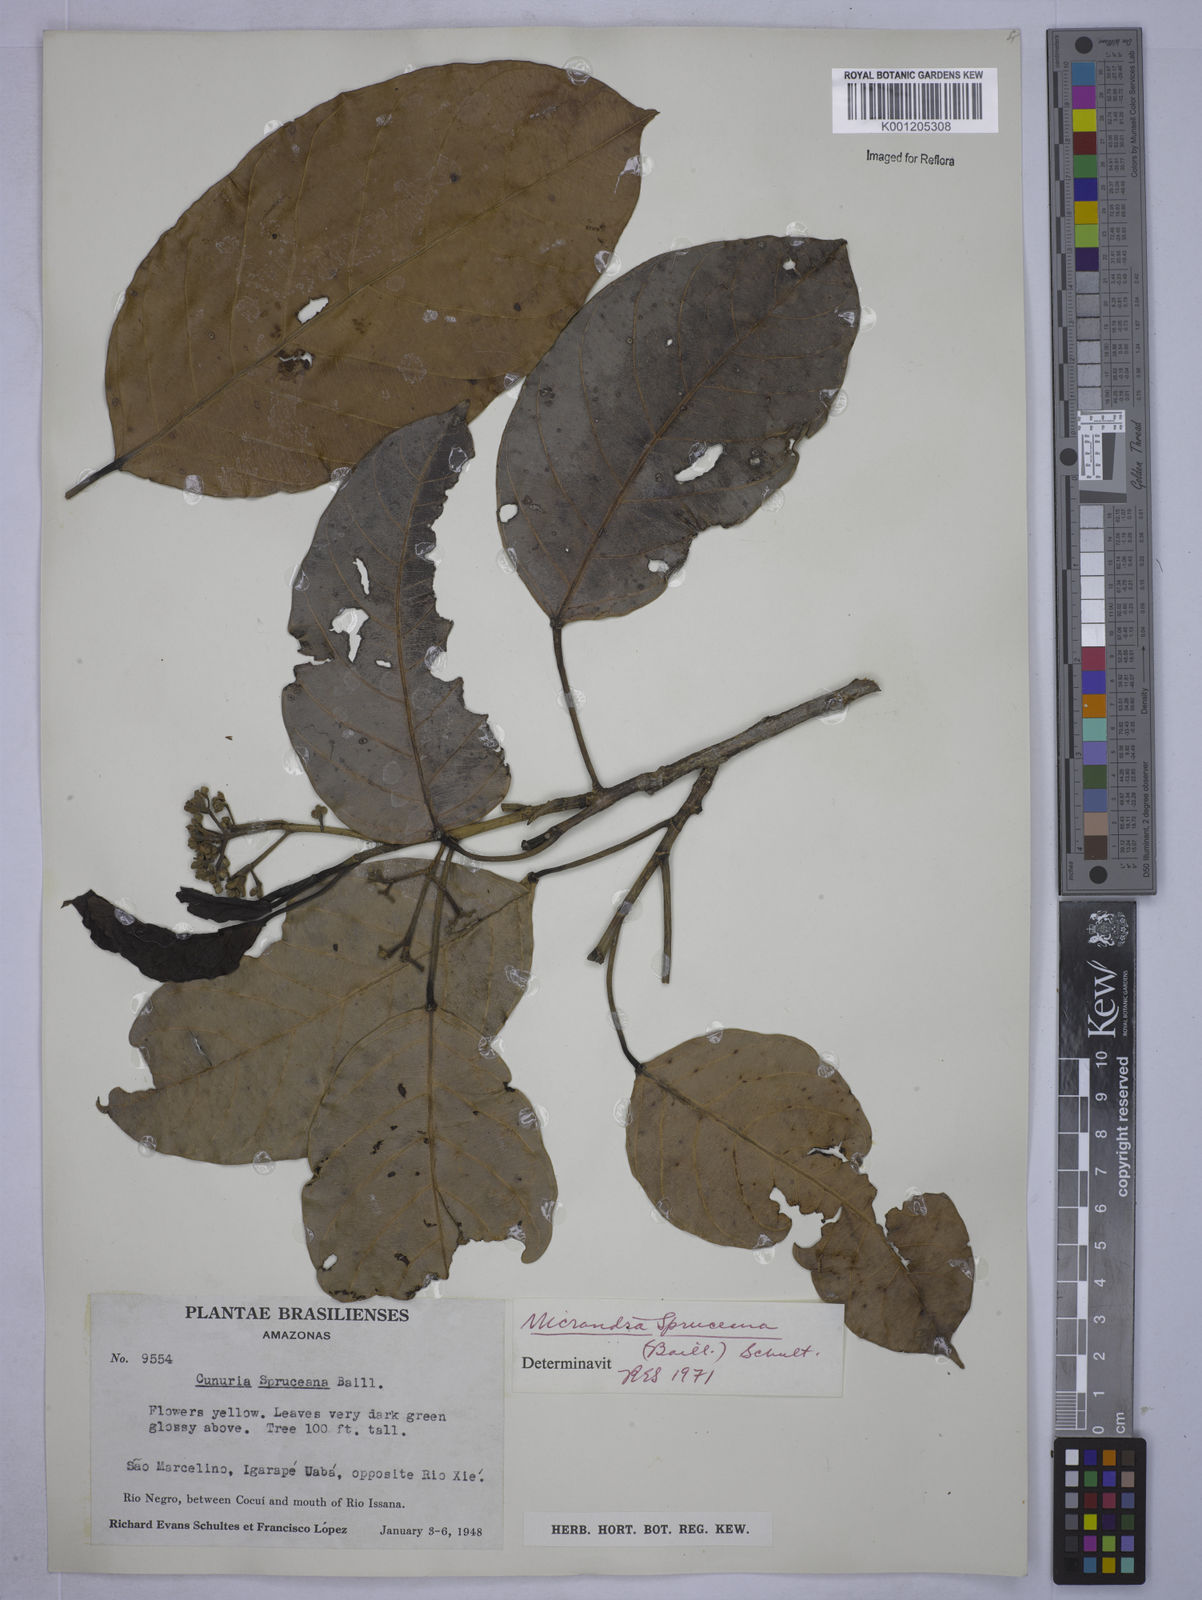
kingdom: Plantae
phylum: Tracheophyta
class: Magnoliopsida
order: Malpighiales
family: Euphorbiaceae
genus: Micrandra
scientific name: Micrandra spruceana
